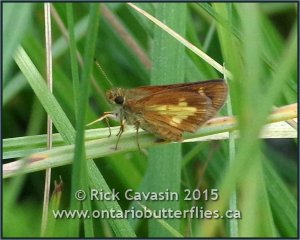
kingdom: Animalia
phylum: Arthropoda
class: Insecta
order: Lepidoptera
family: Hesperiidae
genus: Poanes
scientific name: Poanes massasoit
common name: Mulberry Wing
